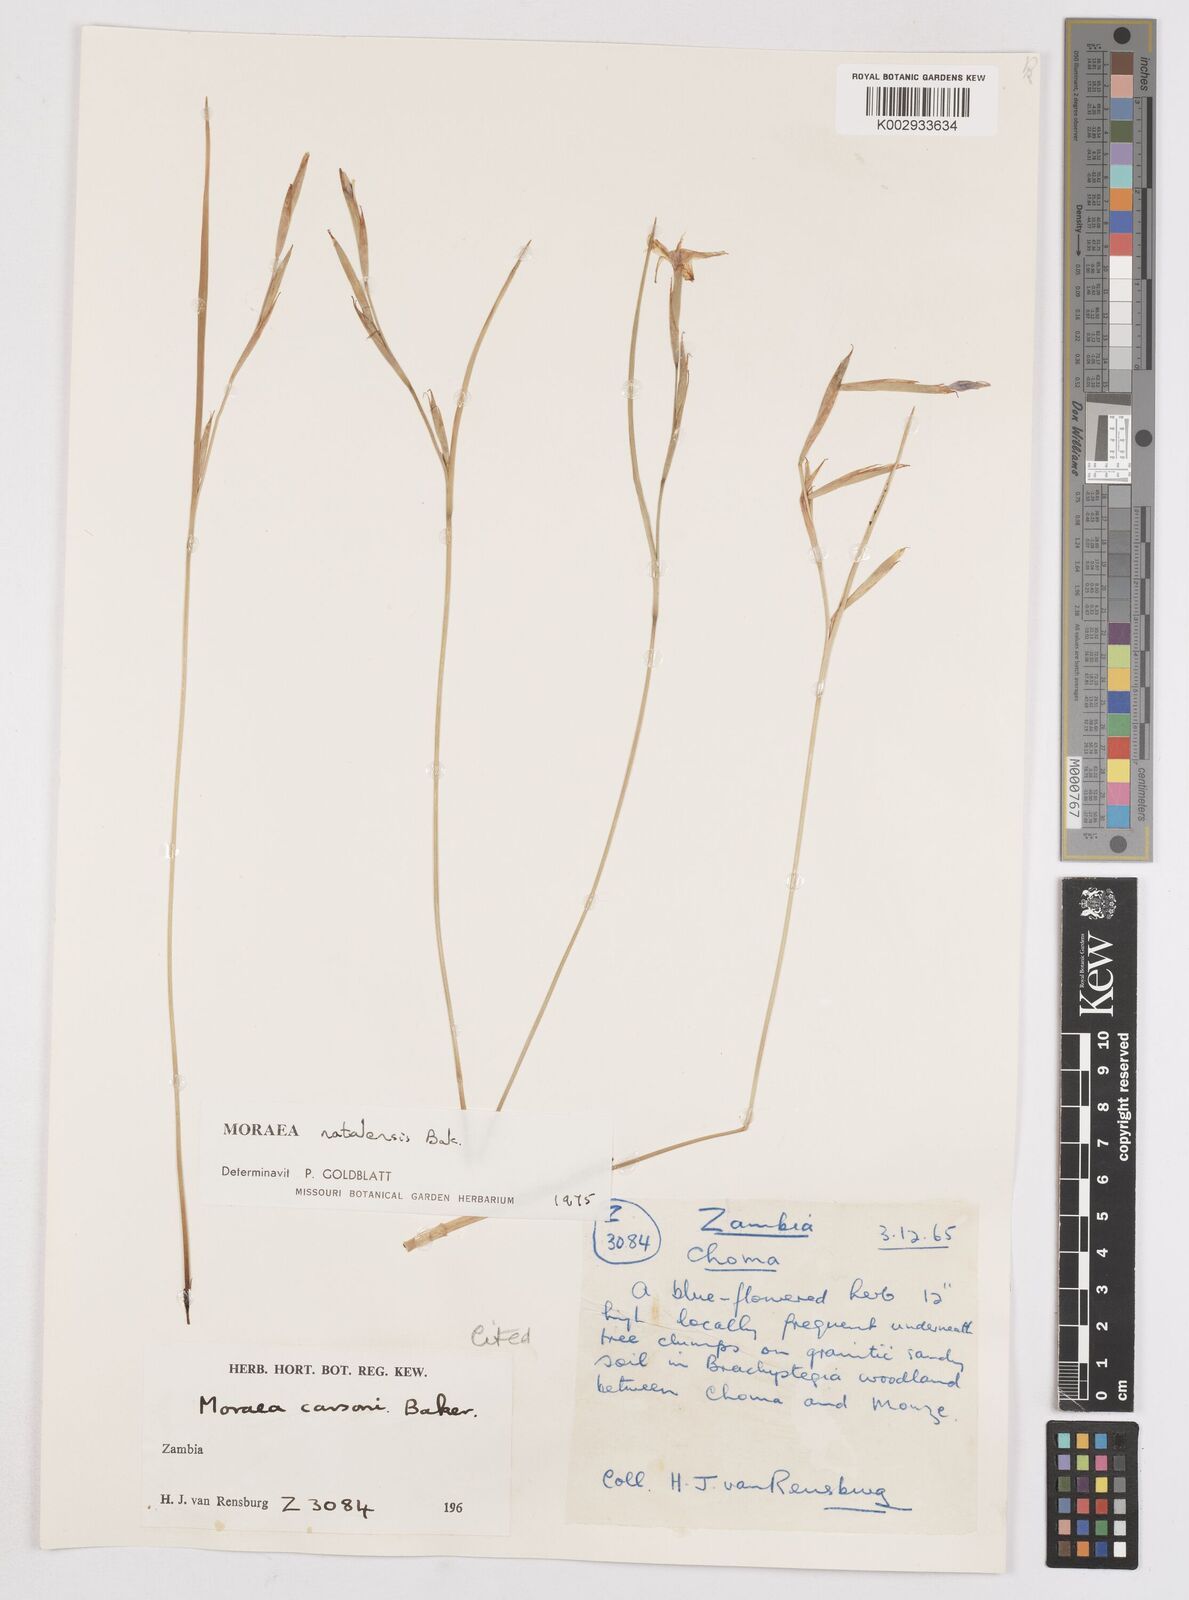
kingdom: Plantae
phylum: Tracheophyta
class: Liliopsida
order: Asparagales
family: Iridaceae
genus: Moraea
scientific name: Moraea natalensis
